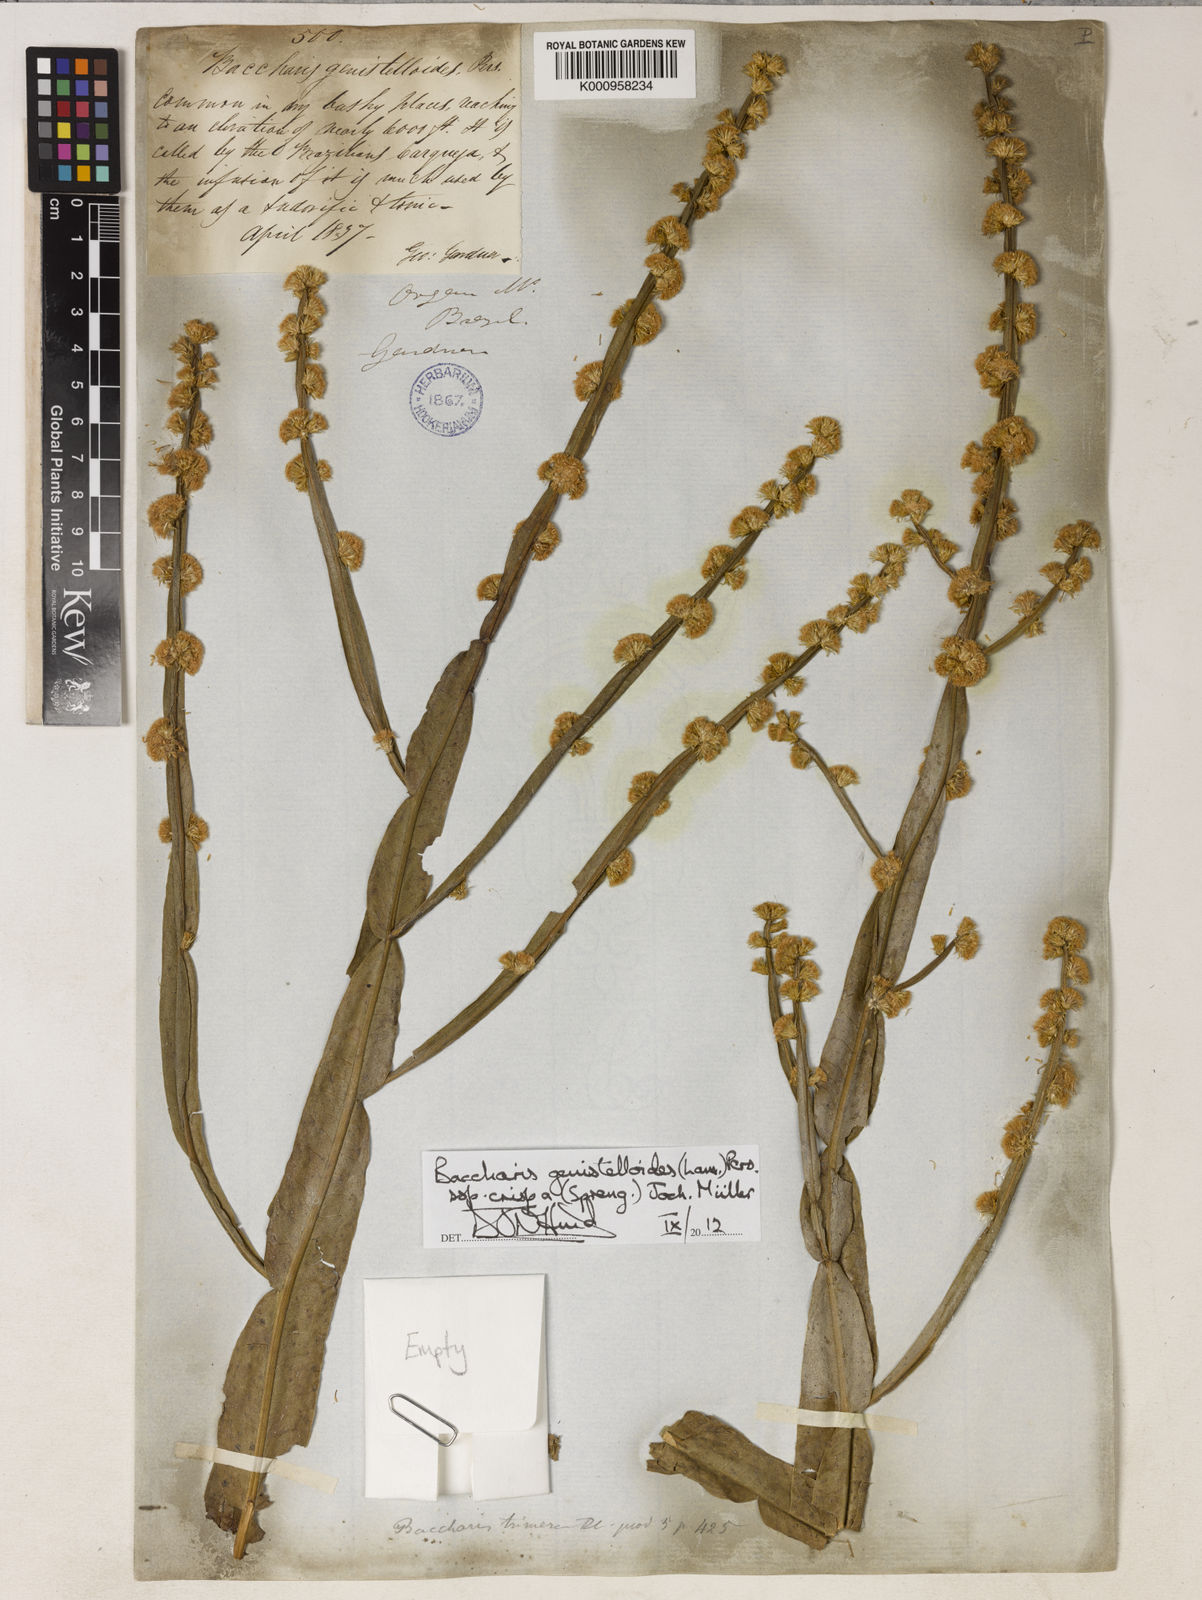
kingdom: Plantae
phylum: Tracheophyta
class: Magnoliopsida
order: Asterales
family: Asteraceae
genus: Baccharis
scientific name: Baccharis genistelloides
